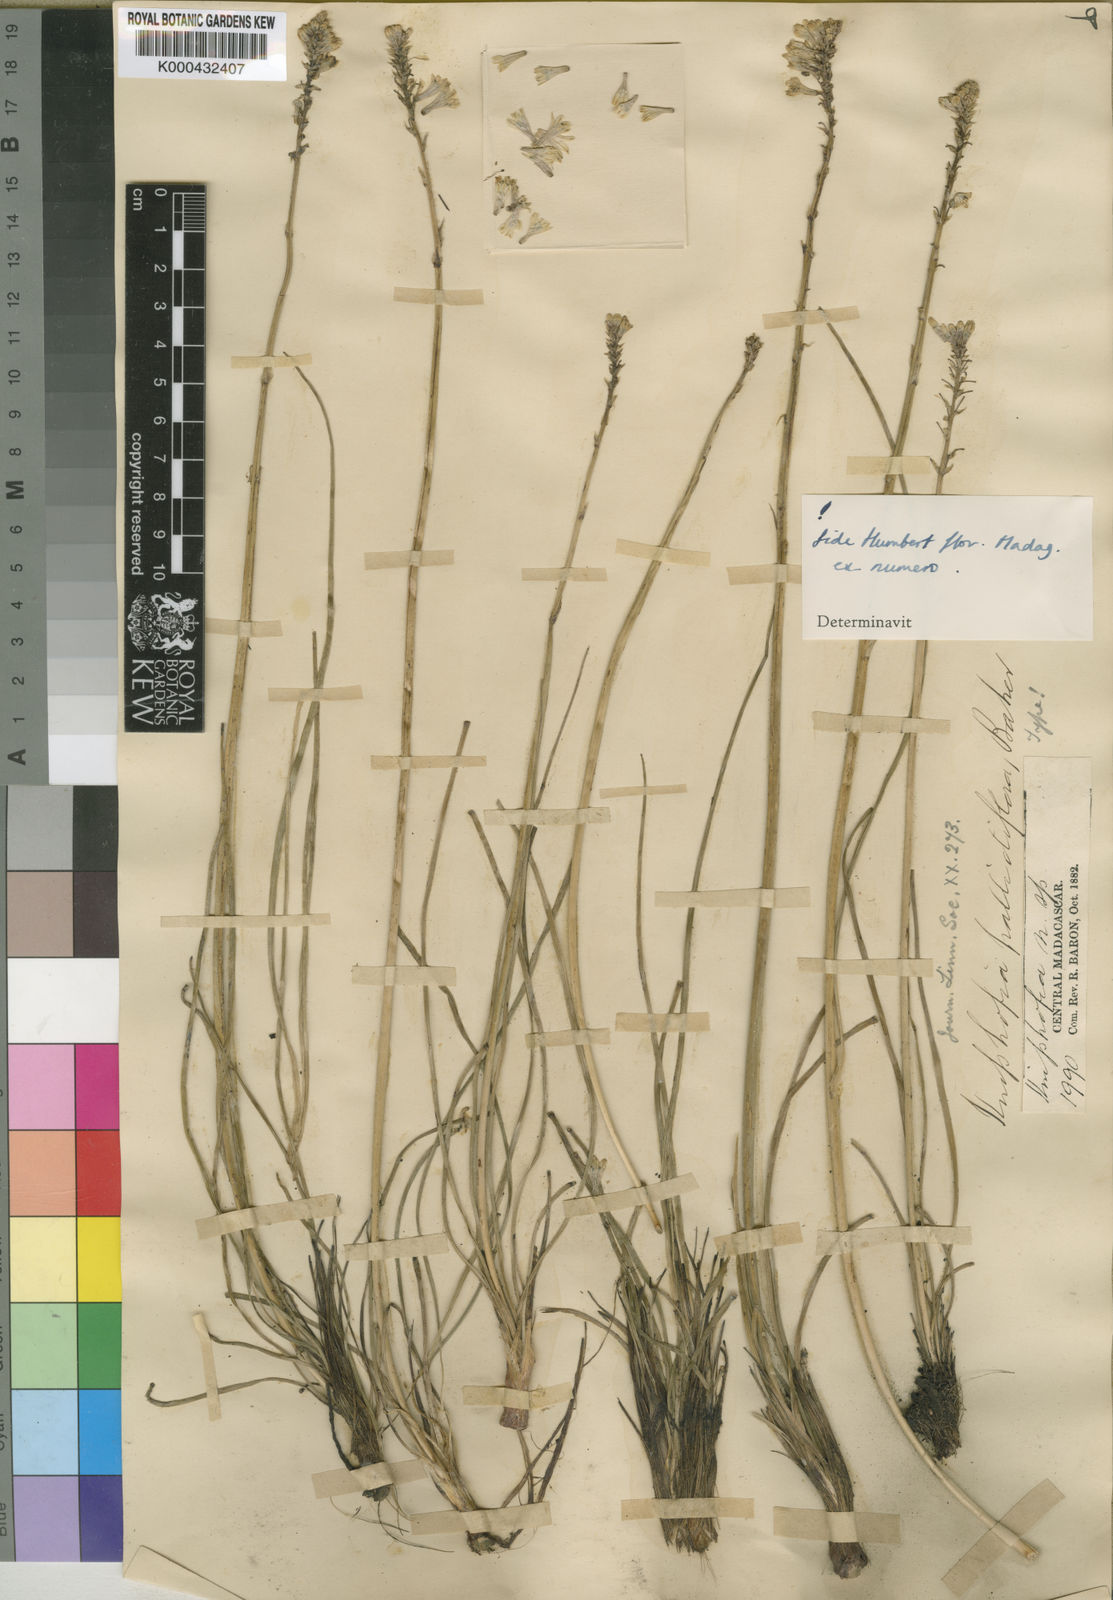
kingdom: Plantae
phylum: Tracheophyta
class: Liliopsida
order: Asparagales
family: Asphodelaceae
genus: Kniphofia
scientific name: Kniphofia pallidiflora
